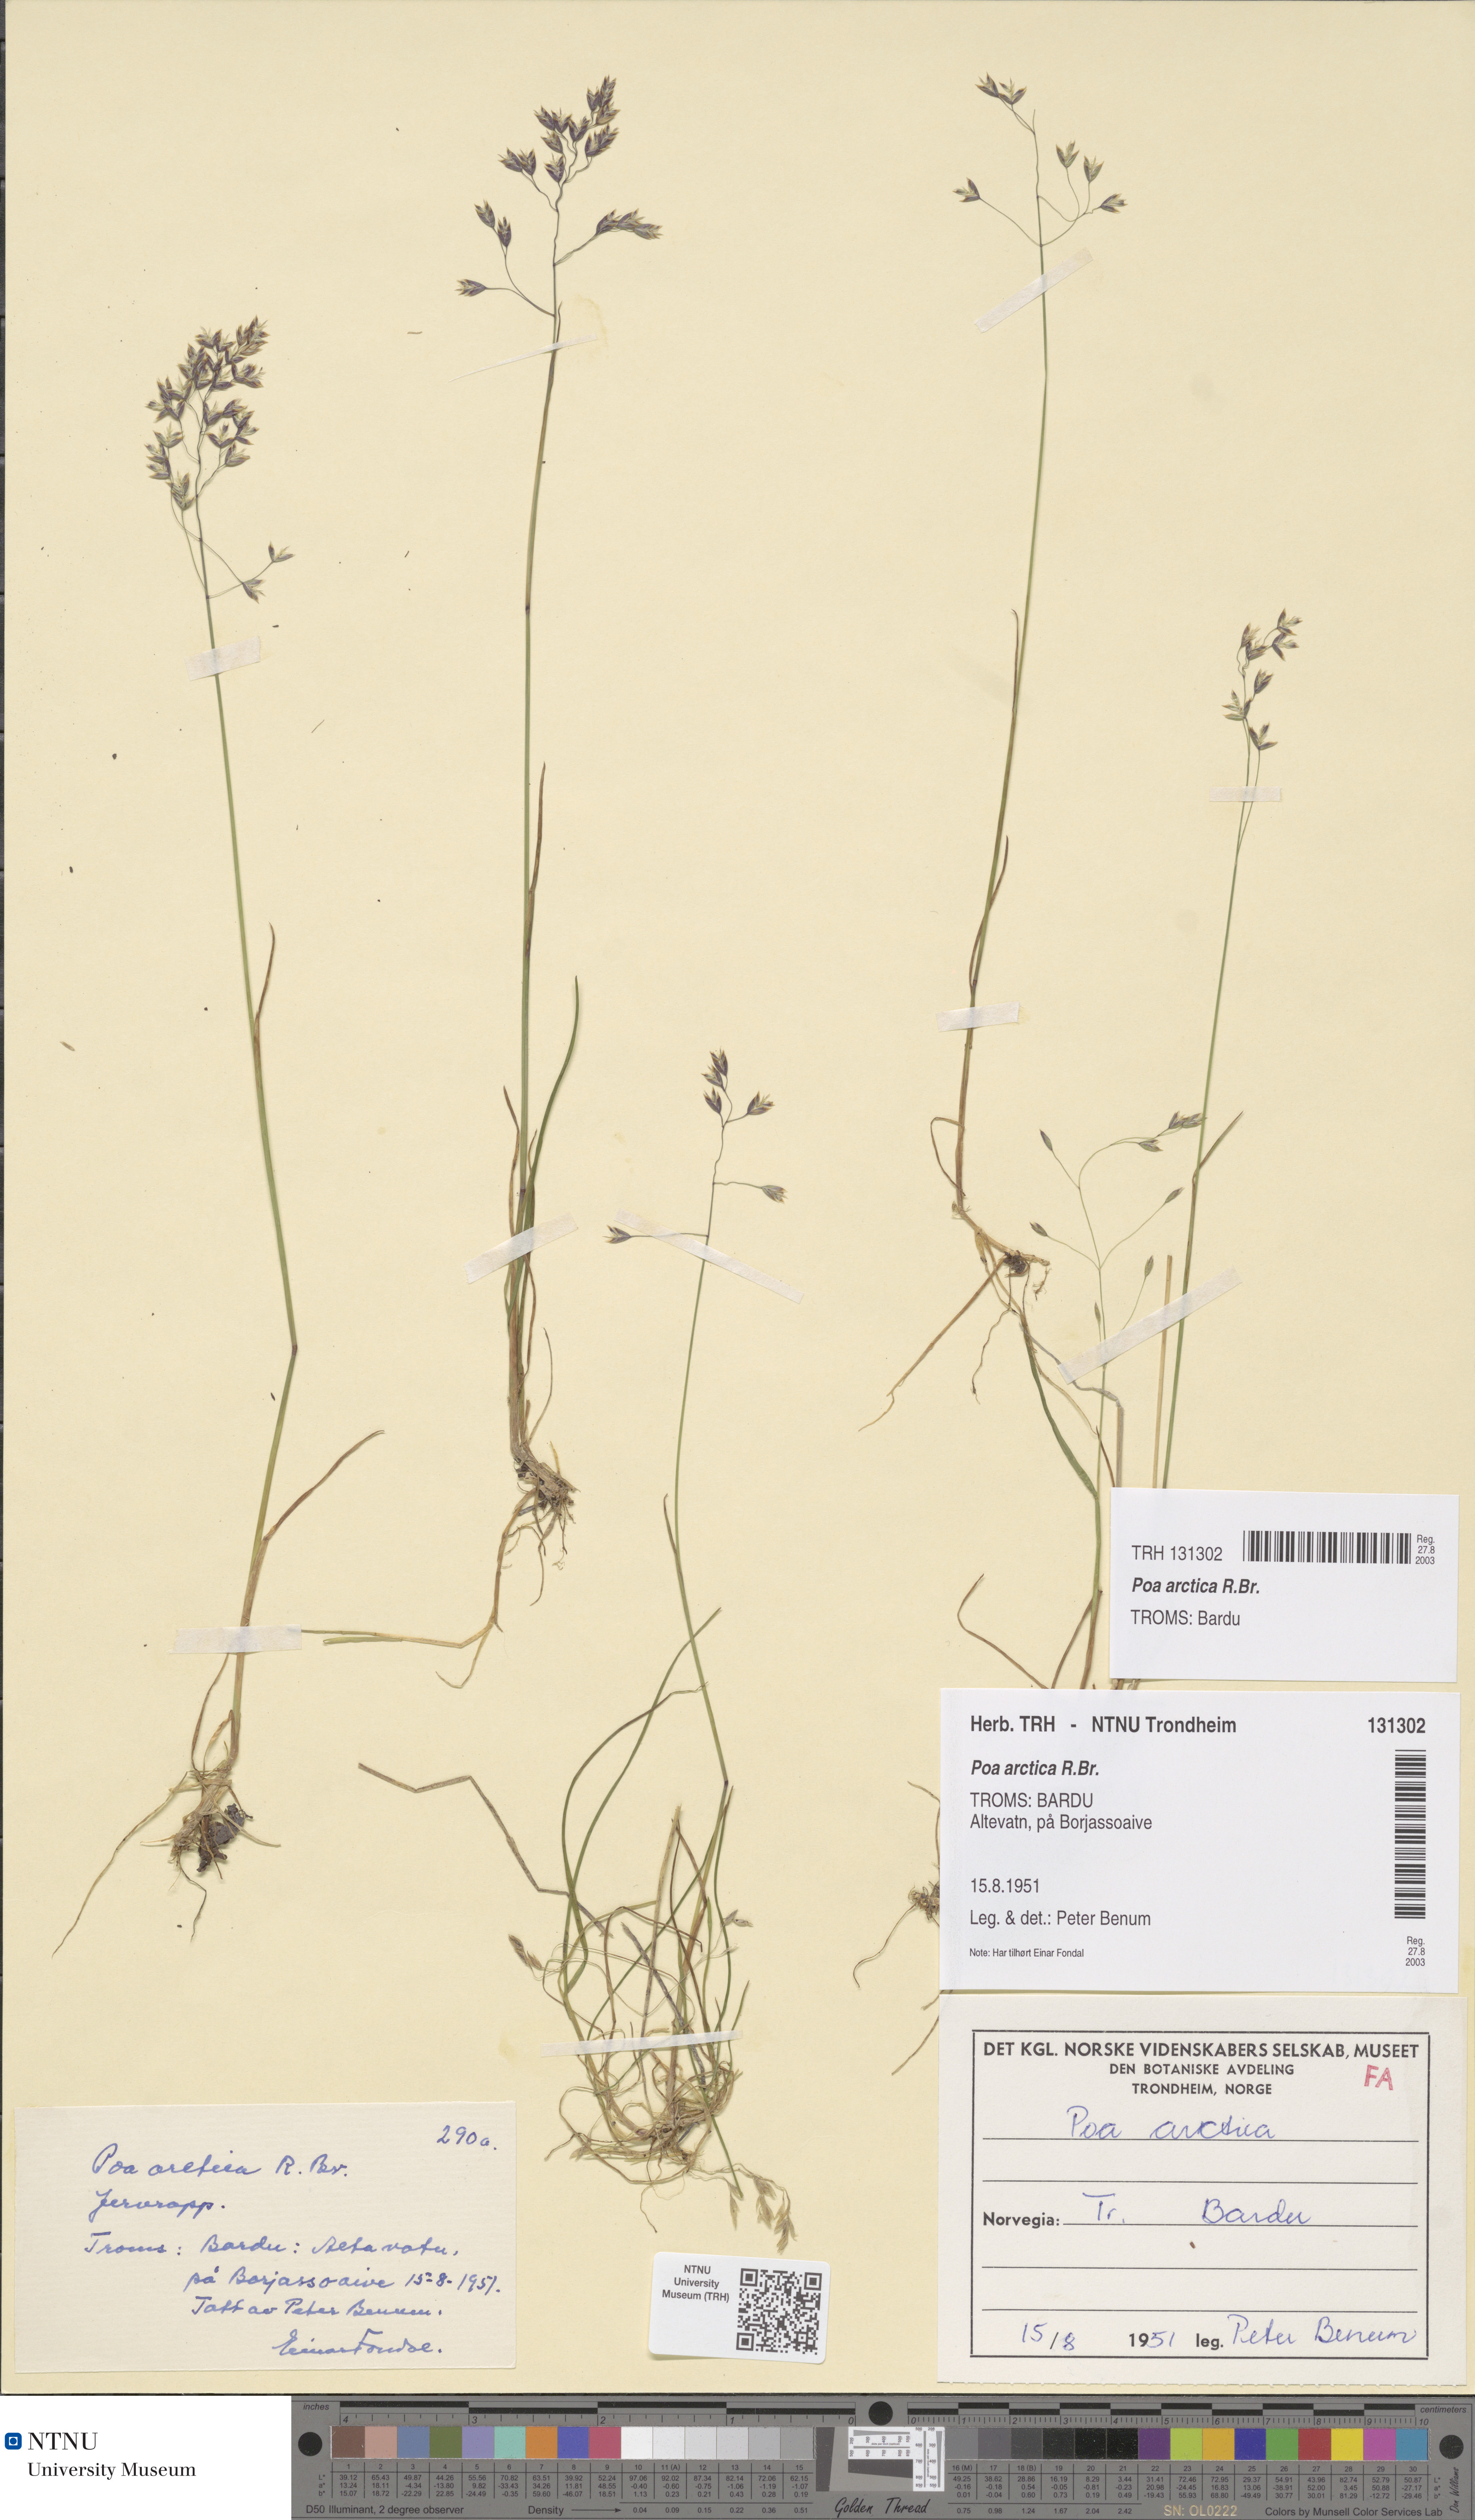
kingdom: Plantae
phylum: Tracheophyta
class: Liliopsida
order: Poales
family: Poaceae
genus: Poa
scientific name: Poa arctica
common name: Arctic bluegrass
